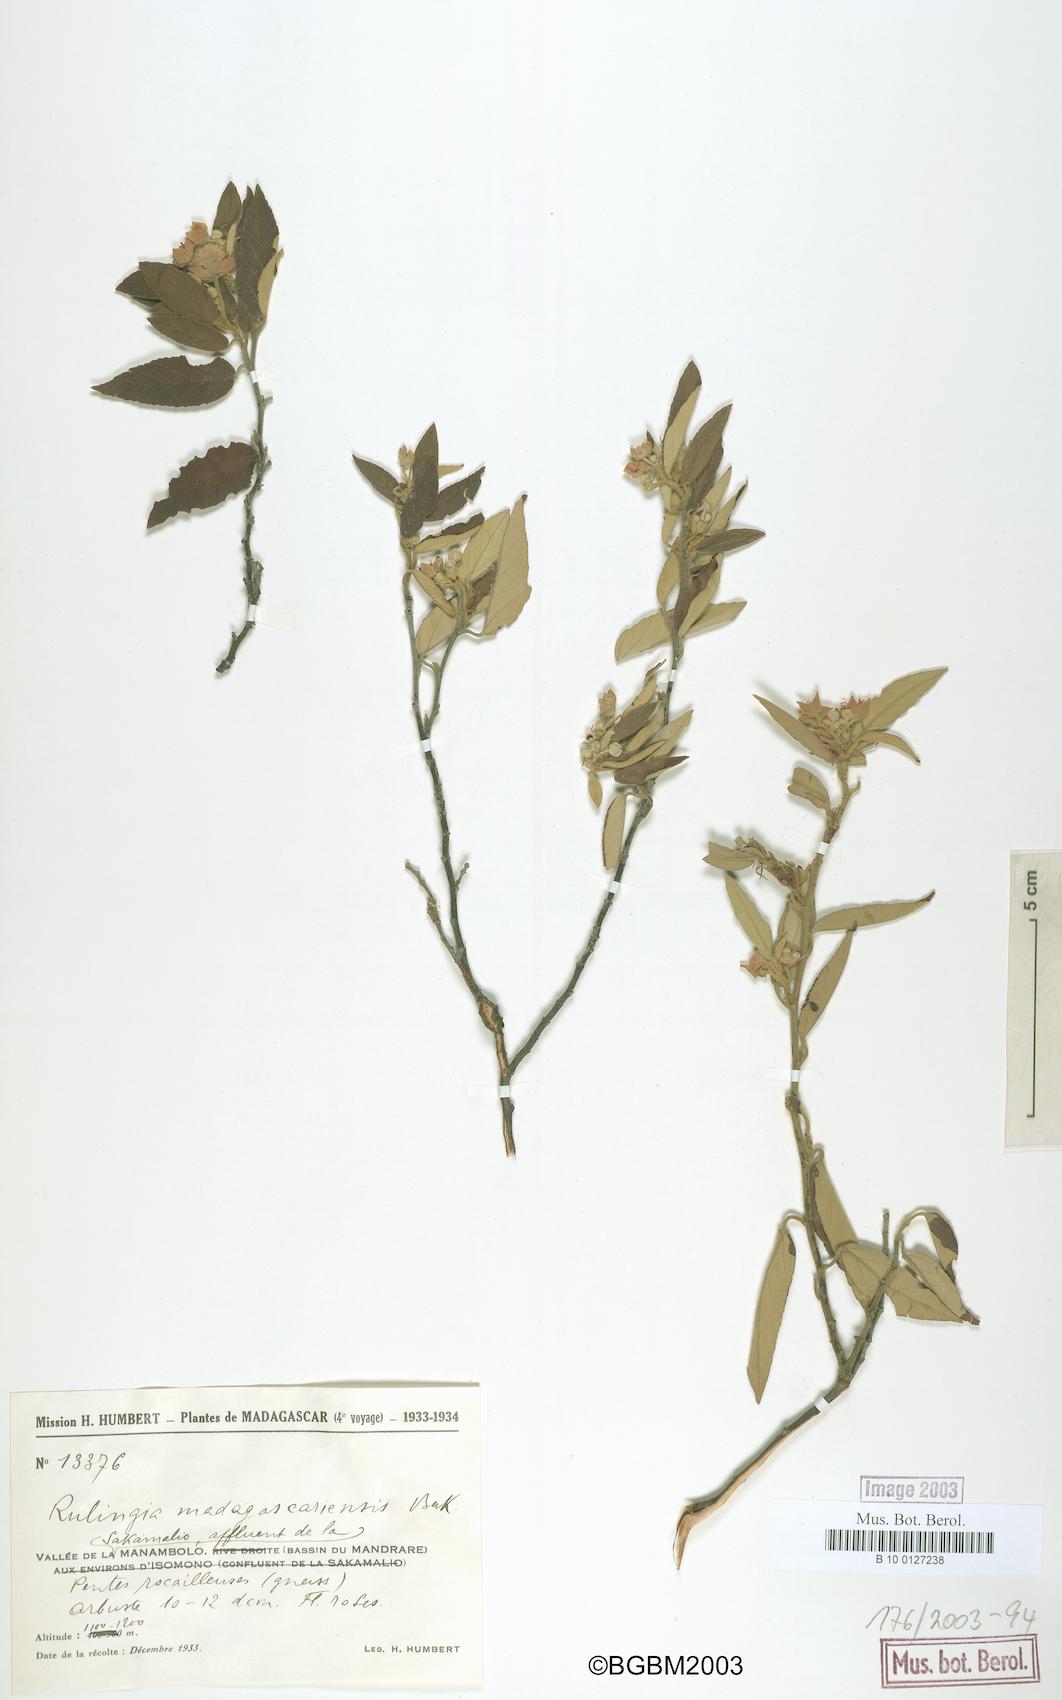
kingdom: Plantae
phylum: Tracheophyta
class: Magnoliopsida
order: Malvales
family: Malvaceae
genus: Commersonia
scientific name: Commersonia madagascariensis
